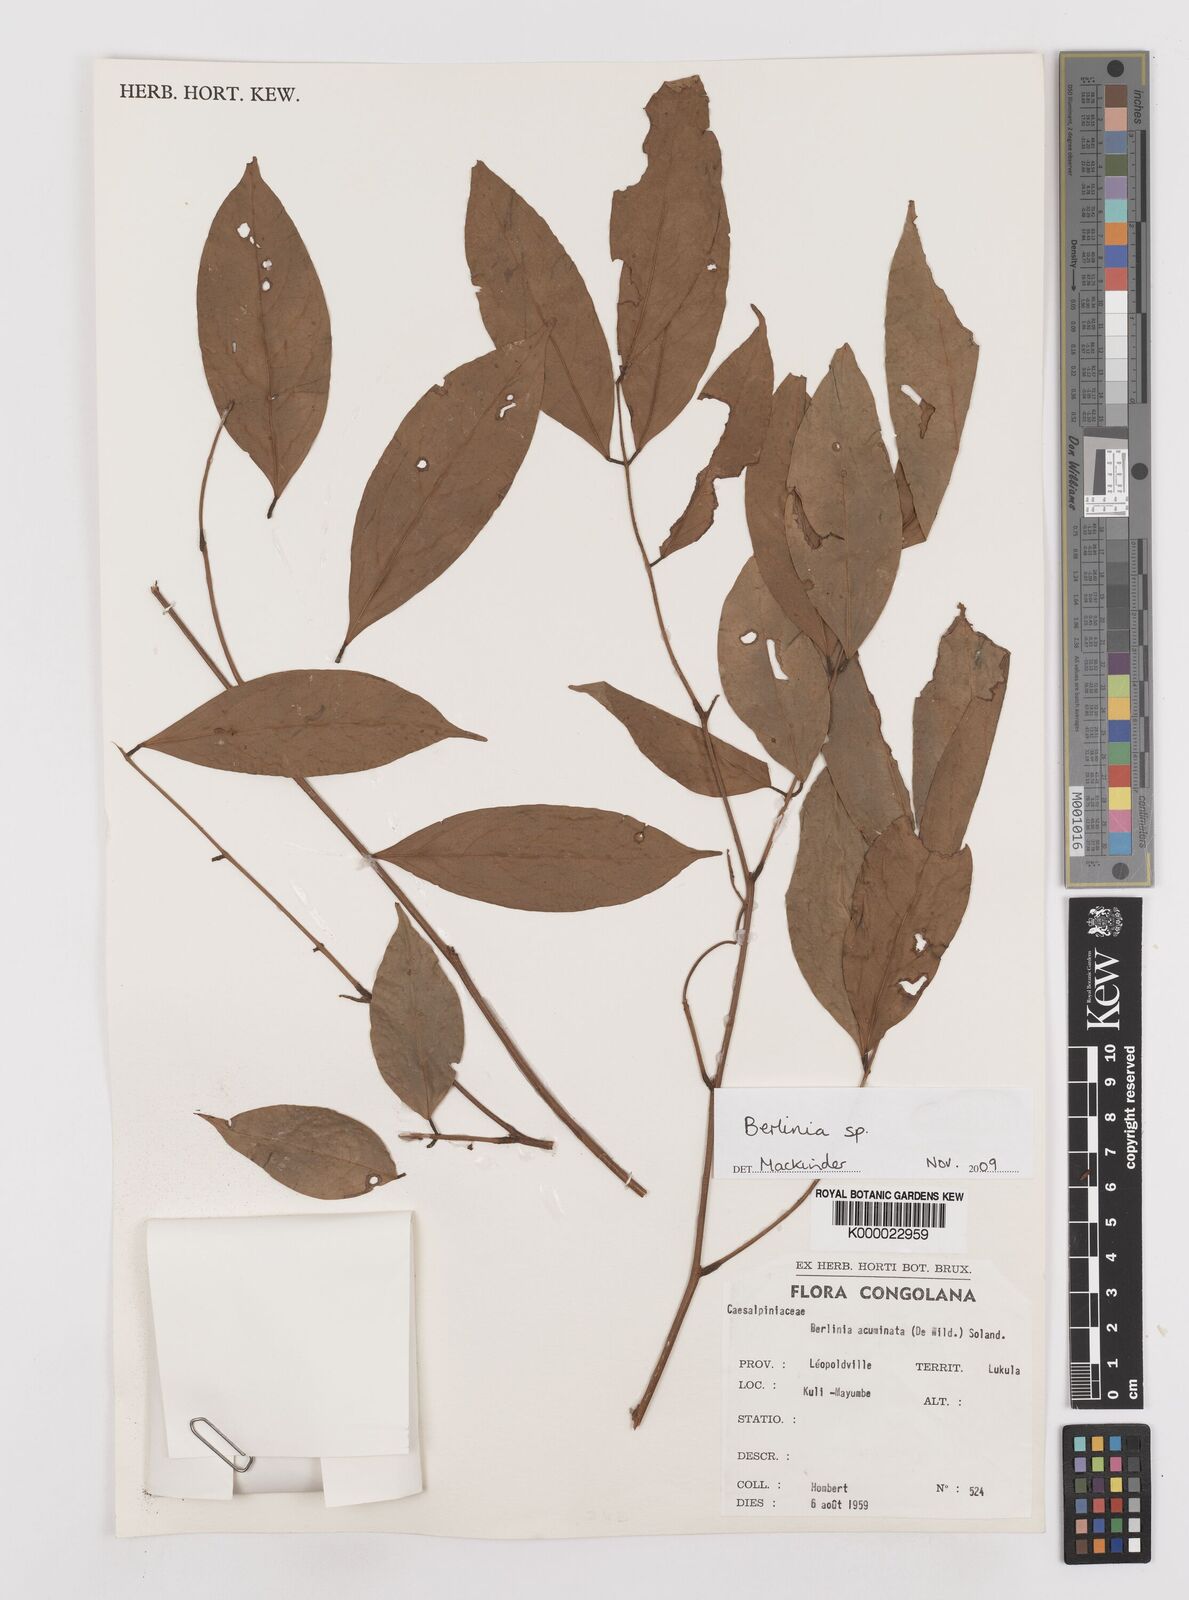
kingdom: Plantae
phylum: Tracheophyta
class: Magnoliopsida
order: Fabales
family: Fabaceae
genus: Berlinia
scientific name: Berlinia
